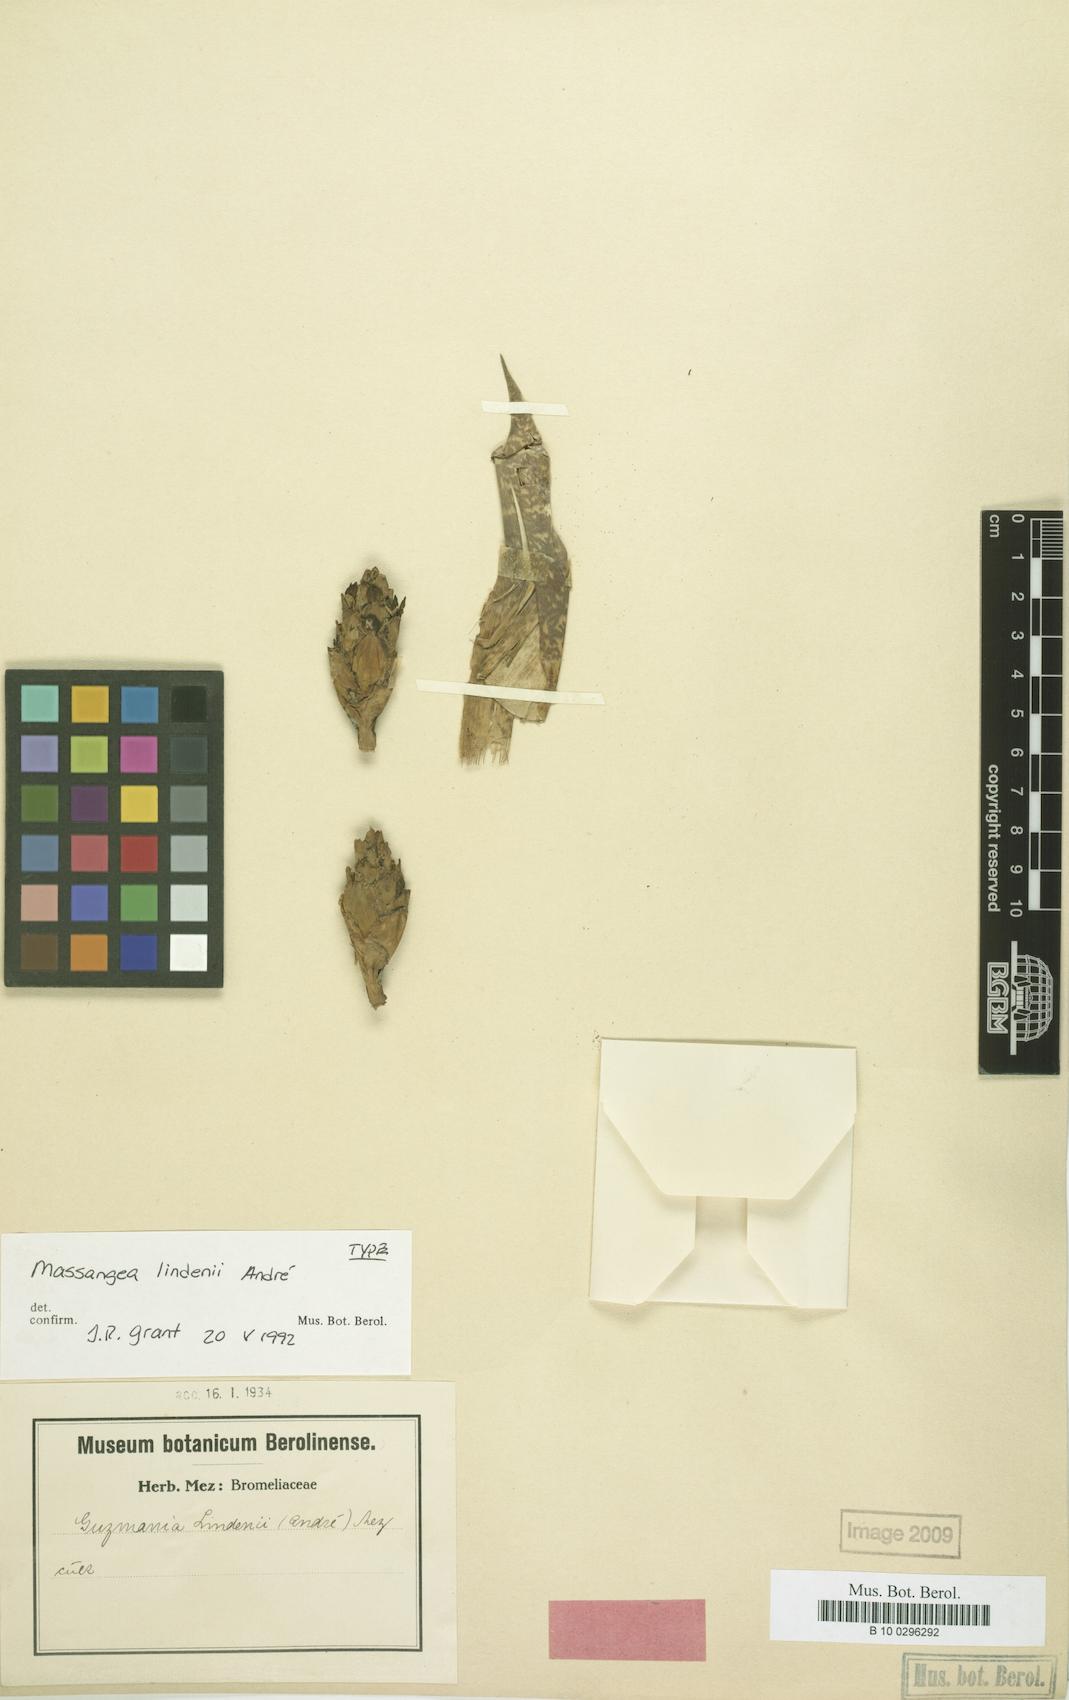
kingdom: Plantae
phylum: Tracheophyta
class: Liliopsida
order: Poales
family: Bromeliaceae
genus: Guzmania
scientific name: Guzmania lindenii
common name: Guzmania
